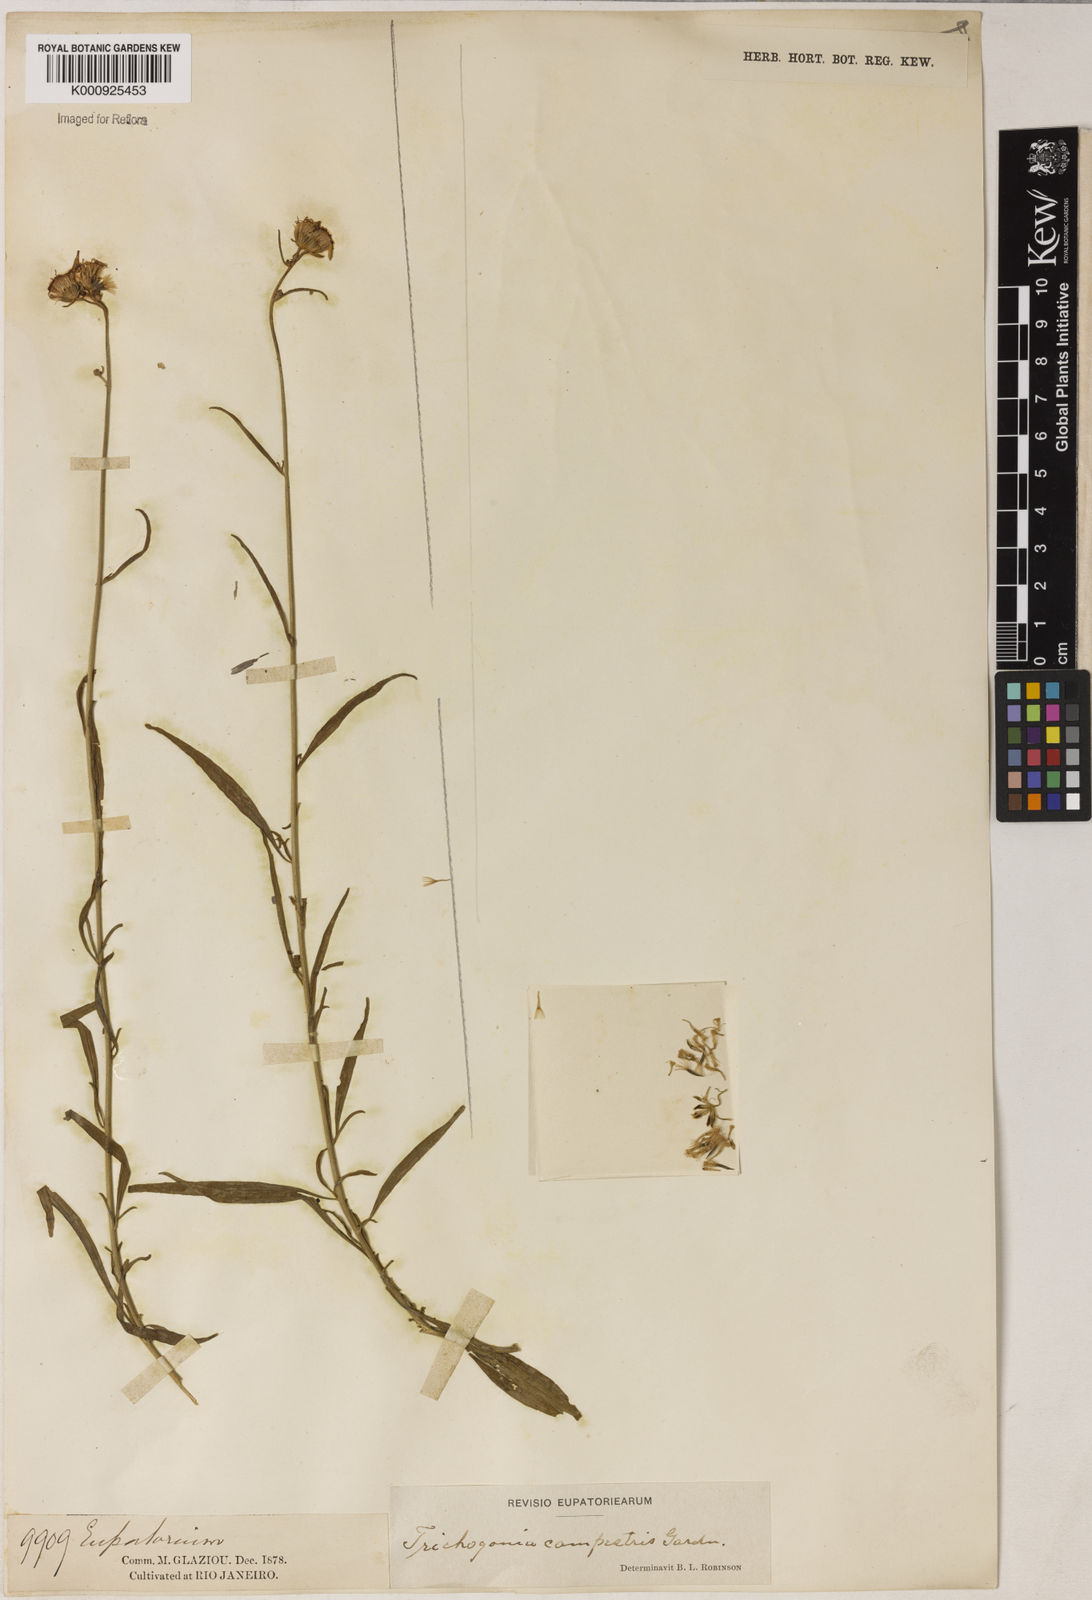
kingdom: Plantae
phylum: Tracheophyta
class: Magnoliopsida
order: Asterales
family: Asteraceae
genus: Trichogonia
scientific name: Trichogonia campestris
